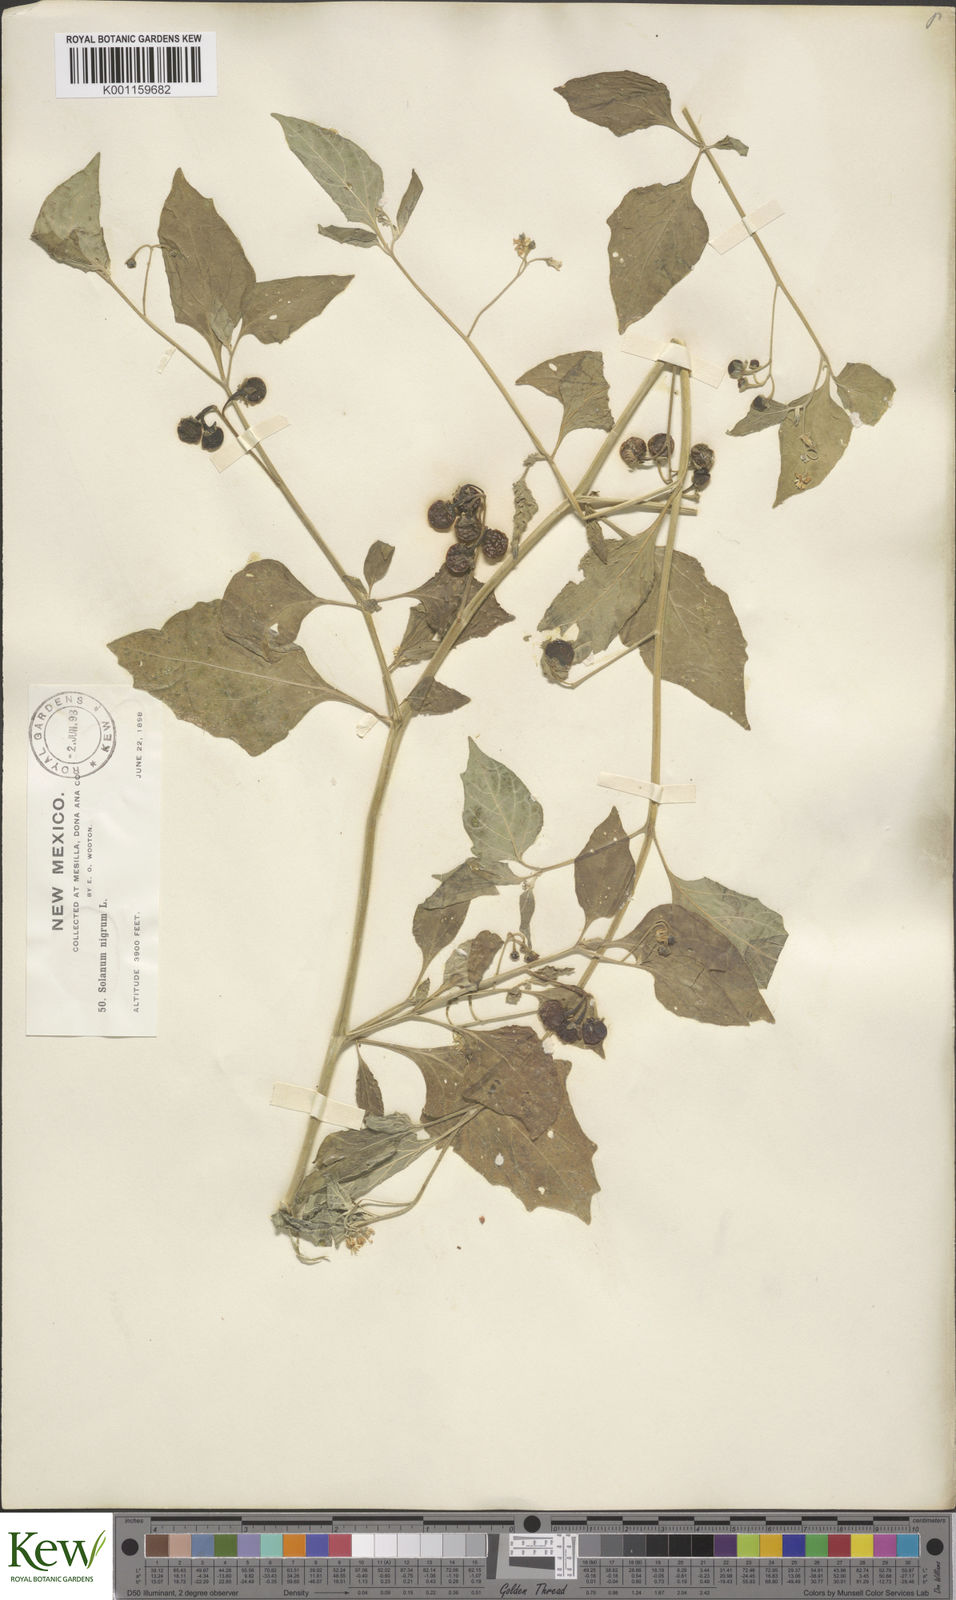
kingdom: Plantae
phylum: Tracheophyta
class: Magnoliopsida
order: Solanales
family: Solanaceae
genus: Solanum
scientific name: Solanum interius
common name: Plains black nightshade
